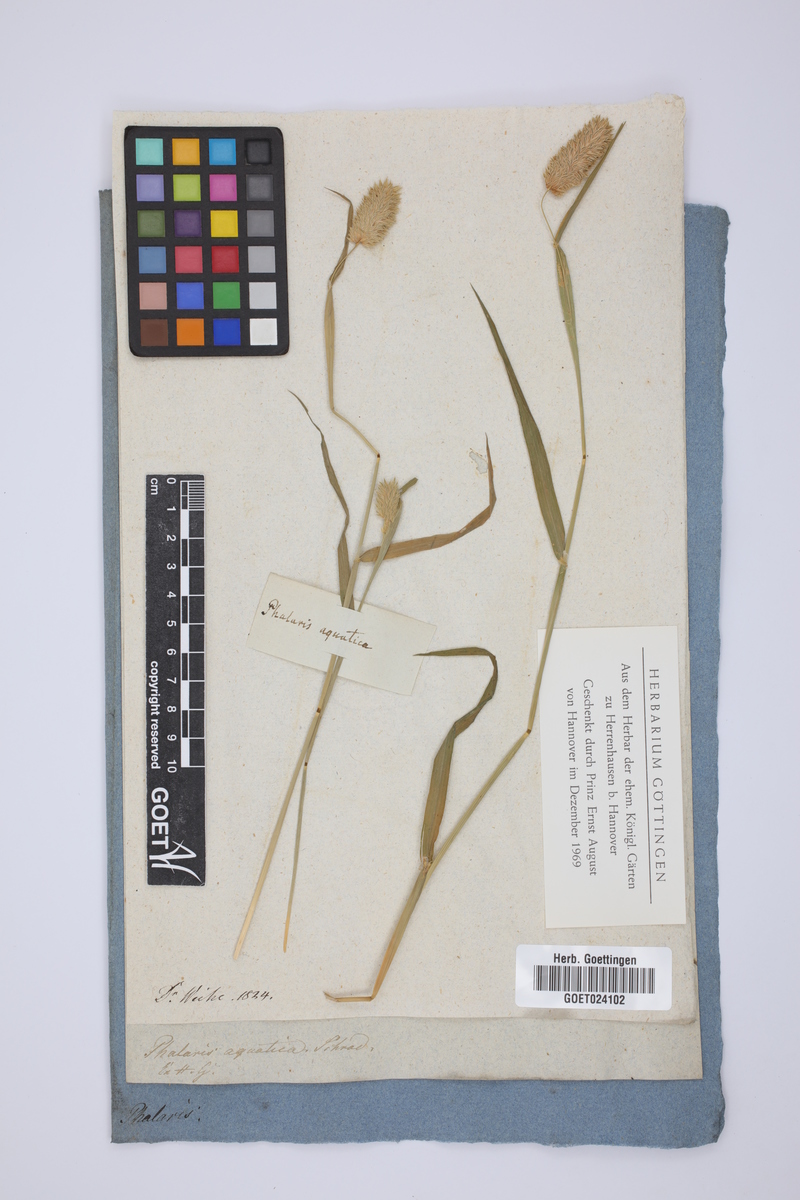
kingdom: Plantae
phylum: Tracheophyta
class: Liliopsida
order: Poales
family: Poaceae
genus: Phalaris
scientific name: Phalaris aquatica
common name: Bulbous canary-grass
